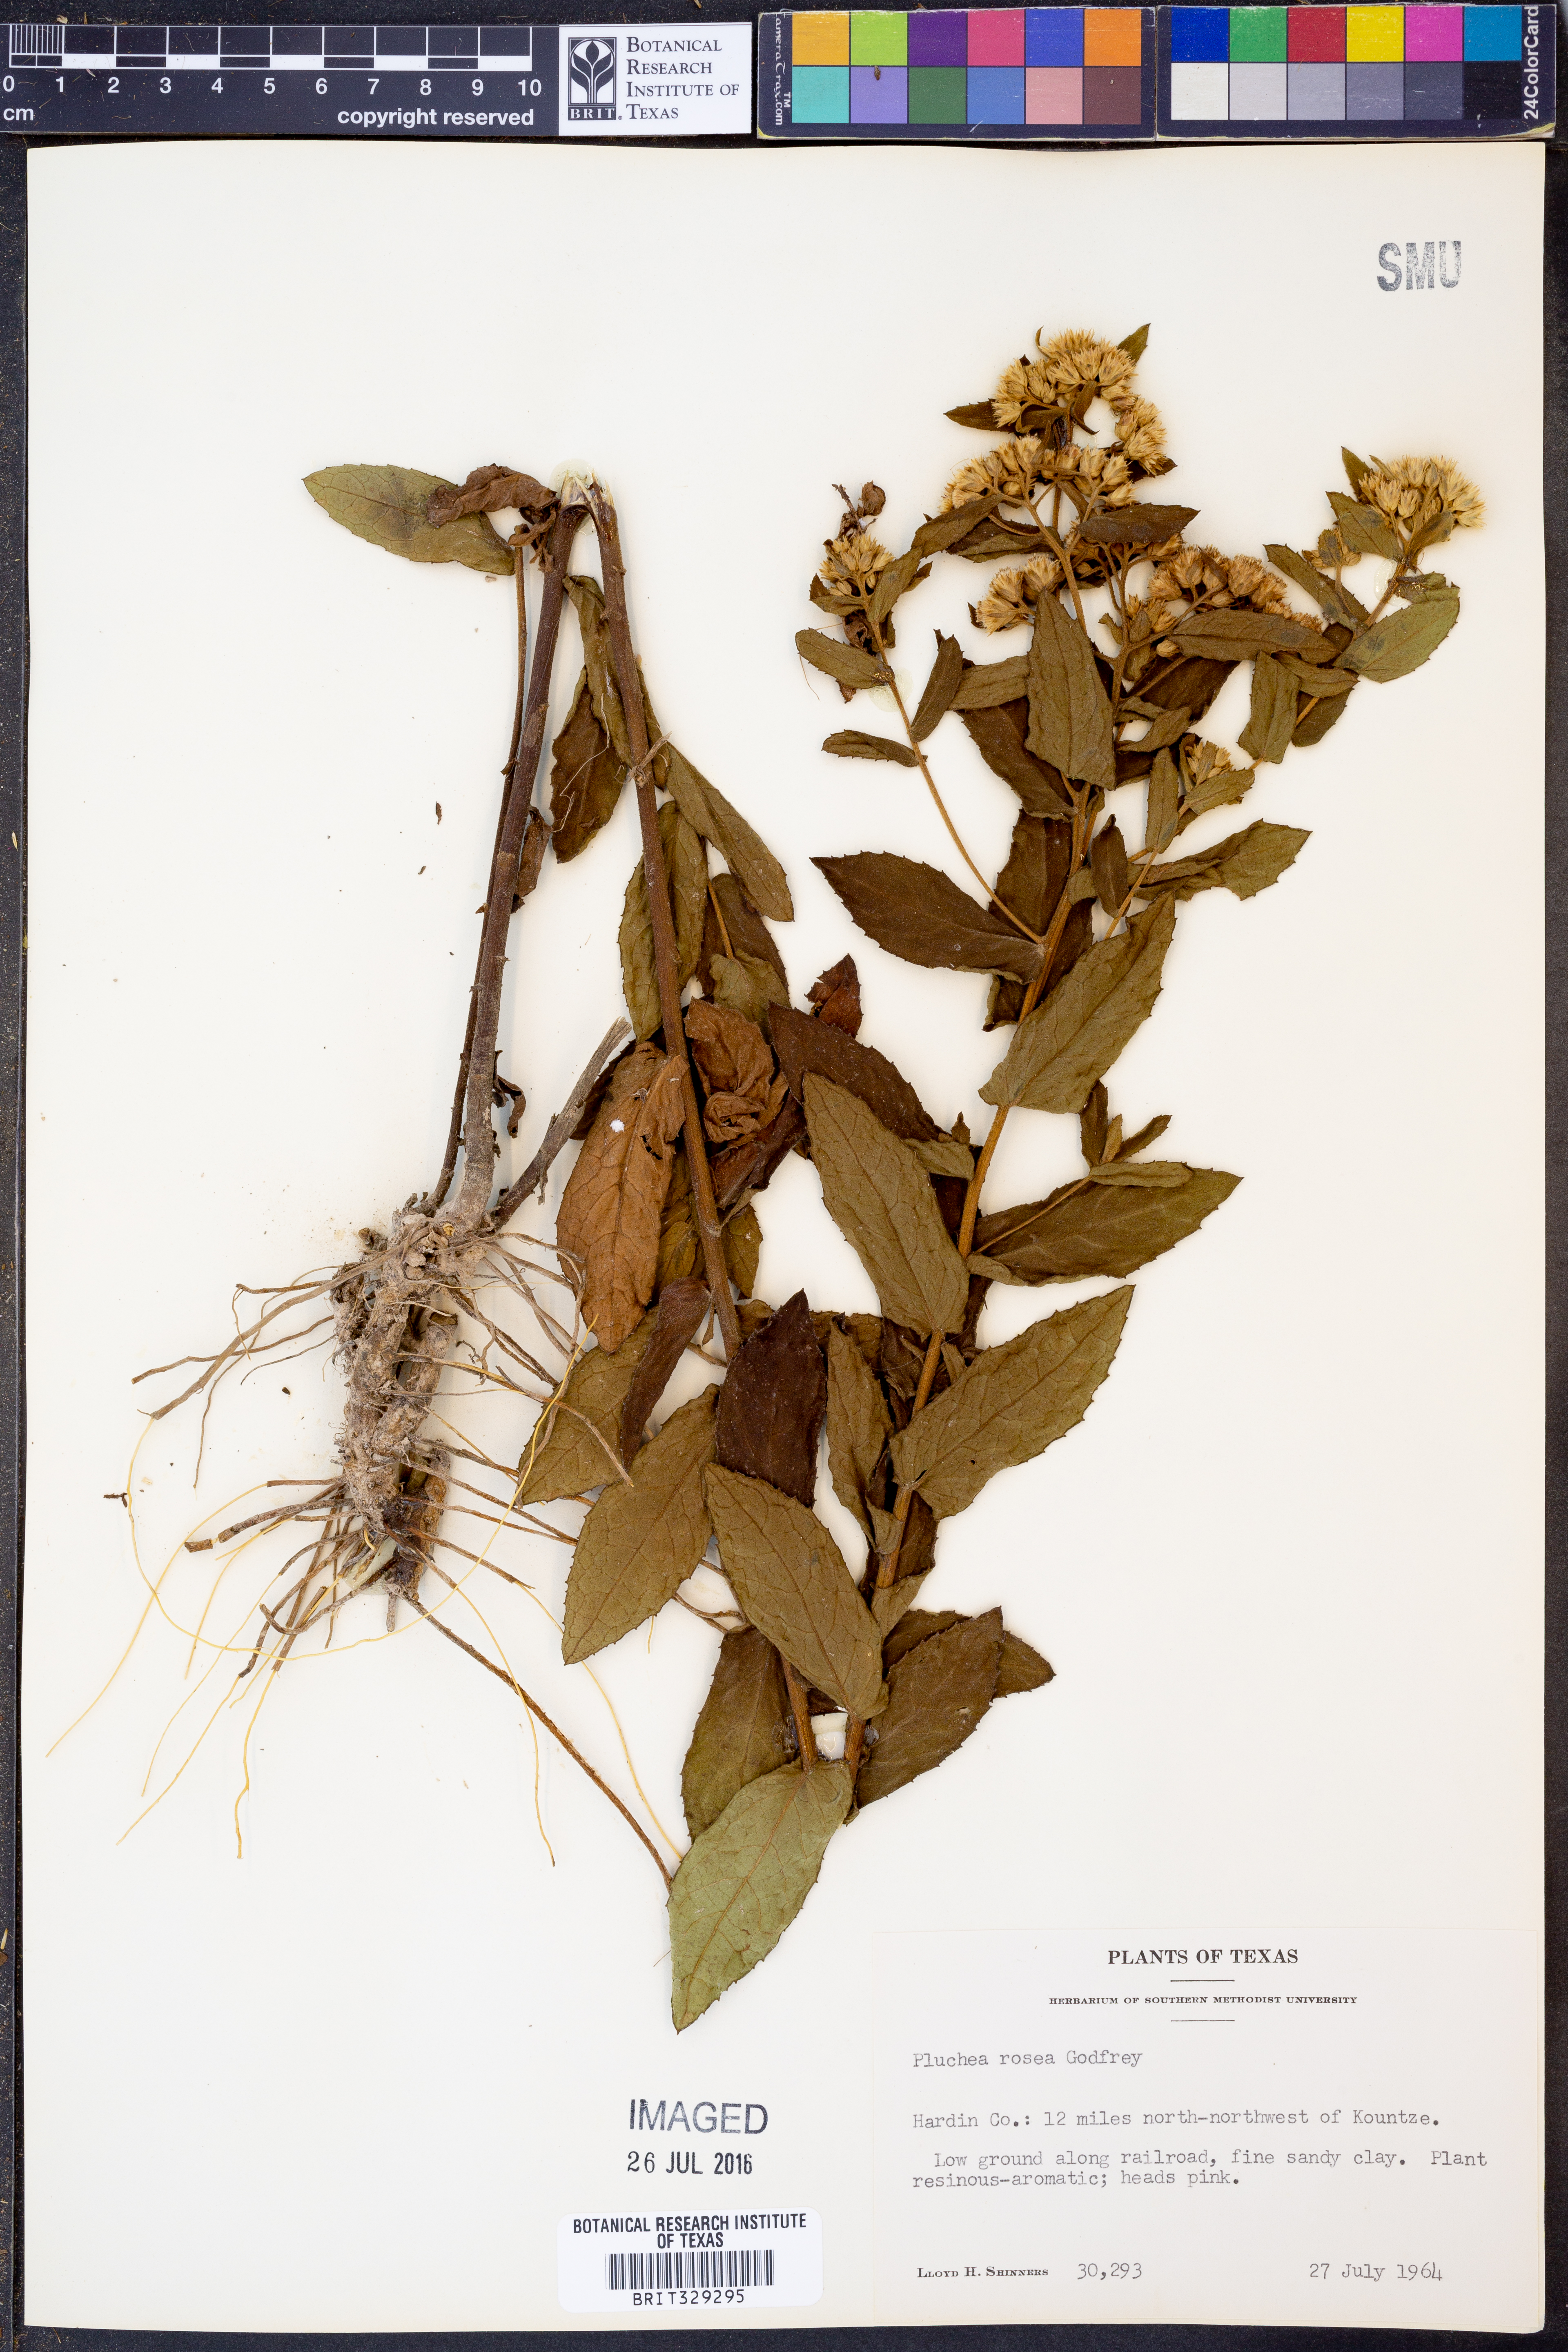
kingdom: Plantae
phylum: Tracheophyta
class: Magnoliopsida
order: Asterales
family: Asteraceae
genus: Pluchea
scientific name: Pluchea baccharis
